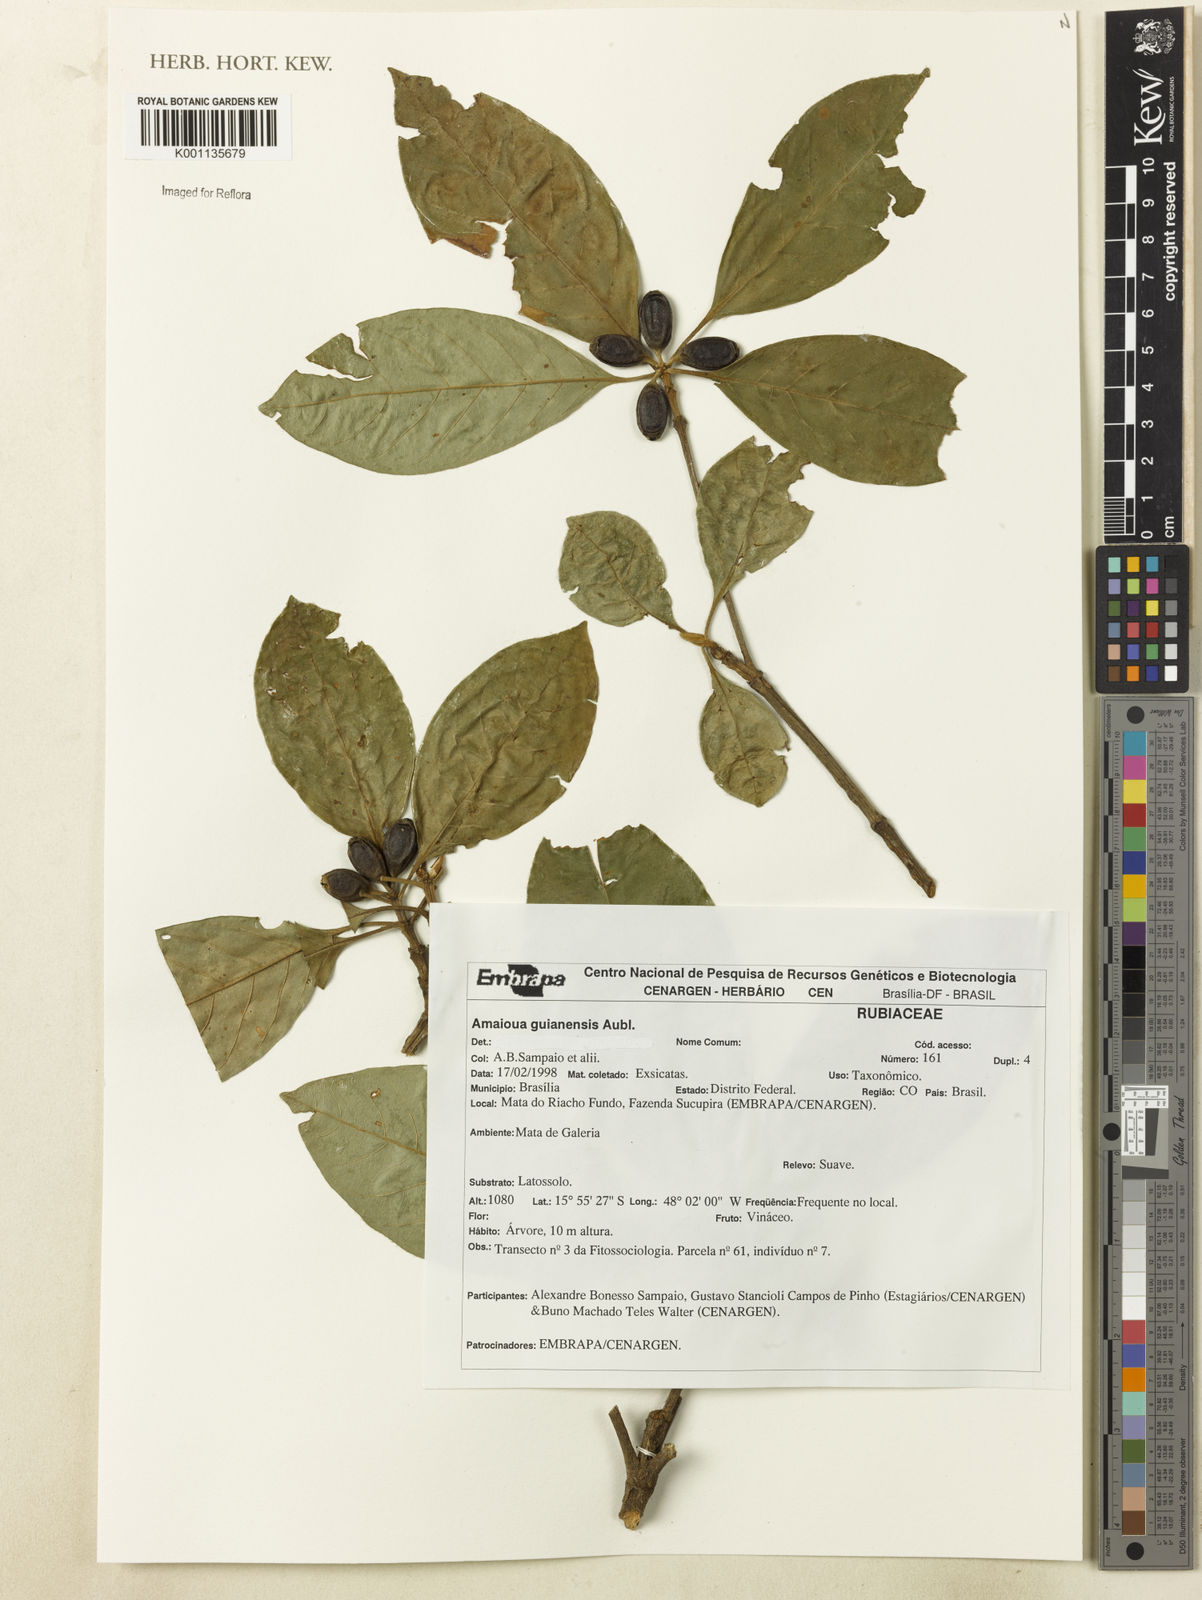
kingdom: Plantae
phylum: Tracheophyta
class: Magnoliopsida
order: Gentianales
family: Rubiaceae
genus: Amaioua
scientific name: Amaioua guianensis
